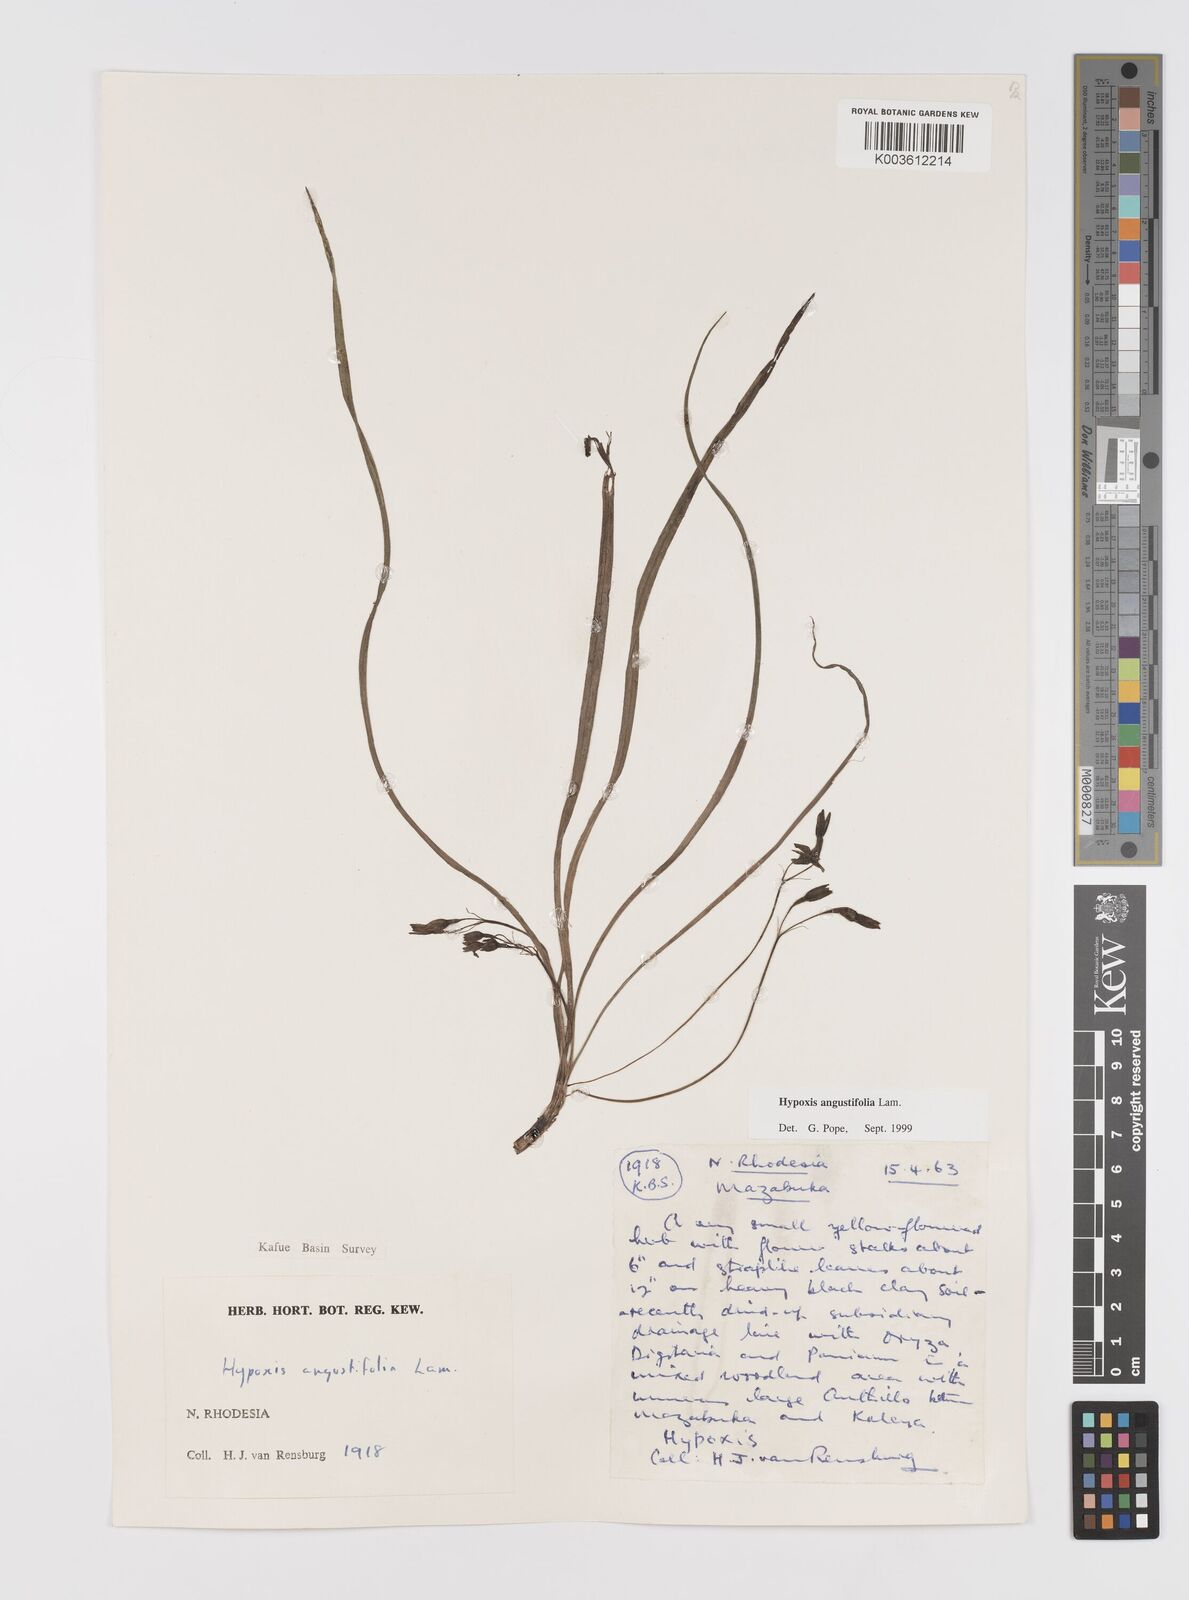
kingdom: Plantae
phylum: Tracheophyta
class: Liliopsida
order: Asparagales
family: Hypoxidaceae
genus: Hypoxis
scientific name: Hypoxis angustifolia
